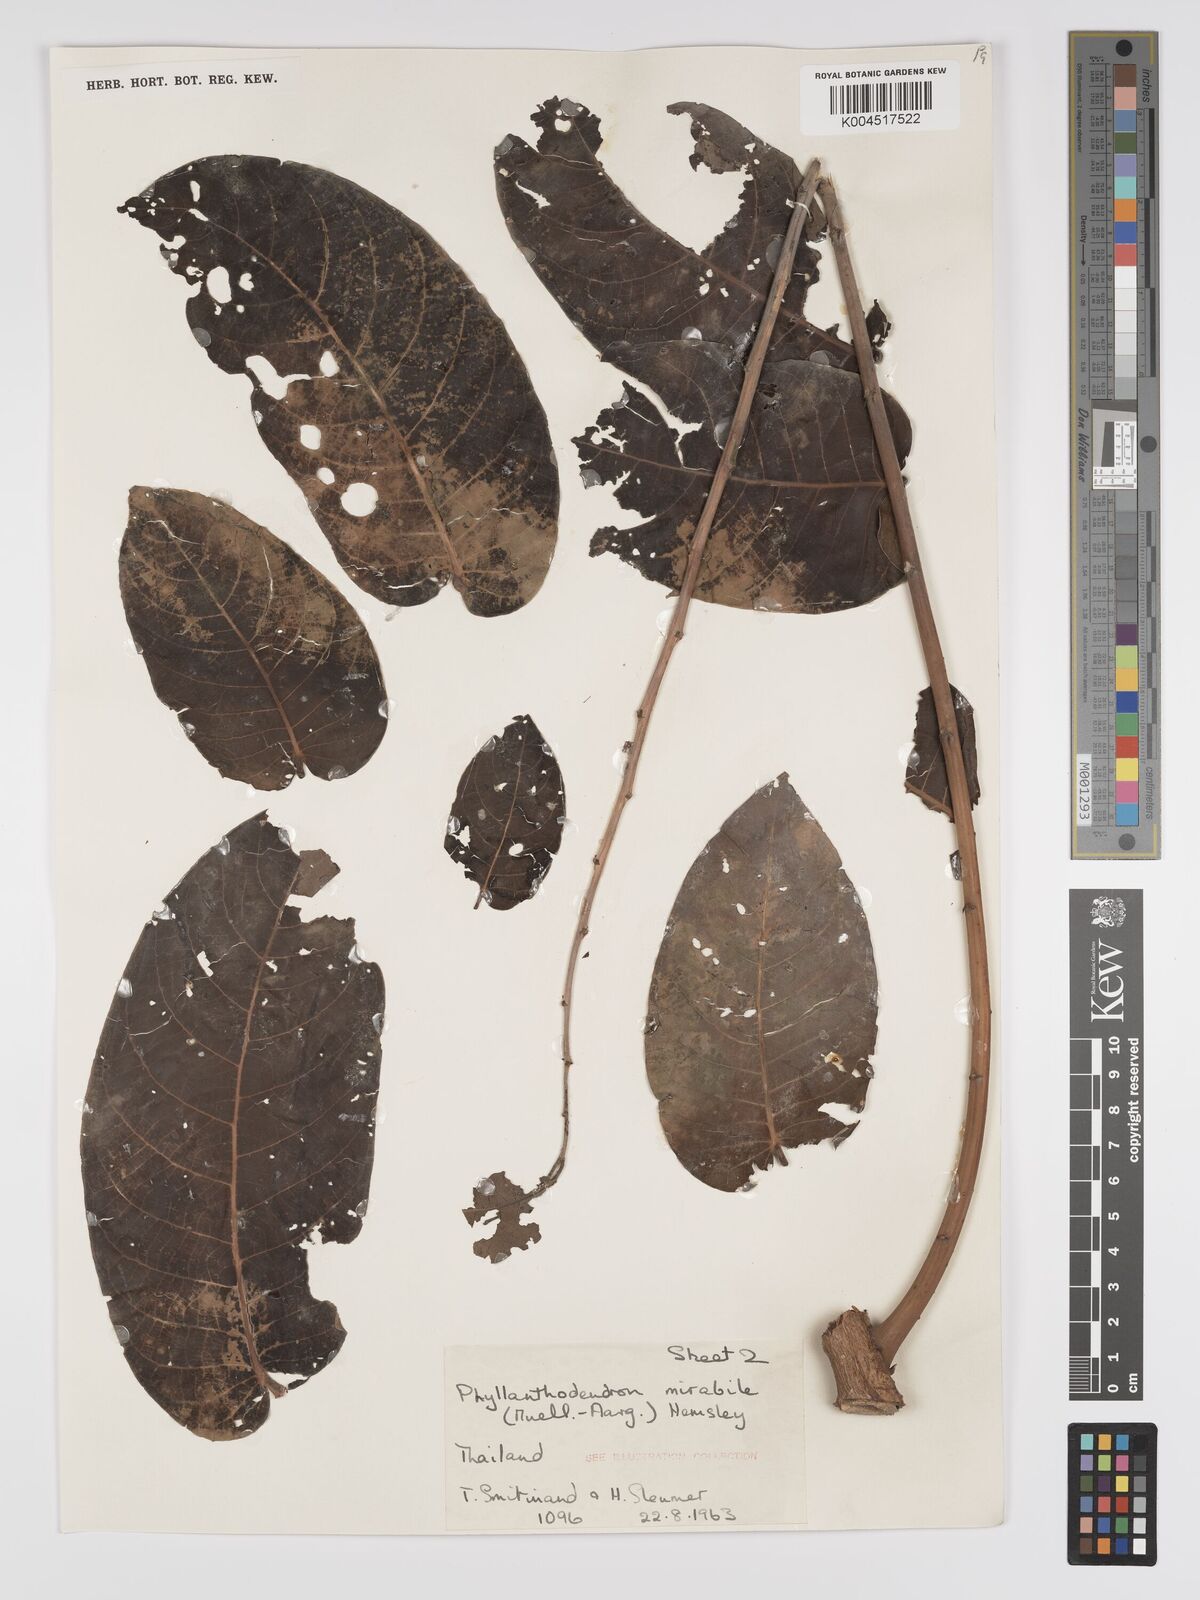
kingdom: Plantae
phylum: Tracheophyta
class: Magnoliopsida
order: Malpighiales
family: Phyllanthaceae
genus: Phyllanthus
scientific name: Phyllanthus mirabilis
